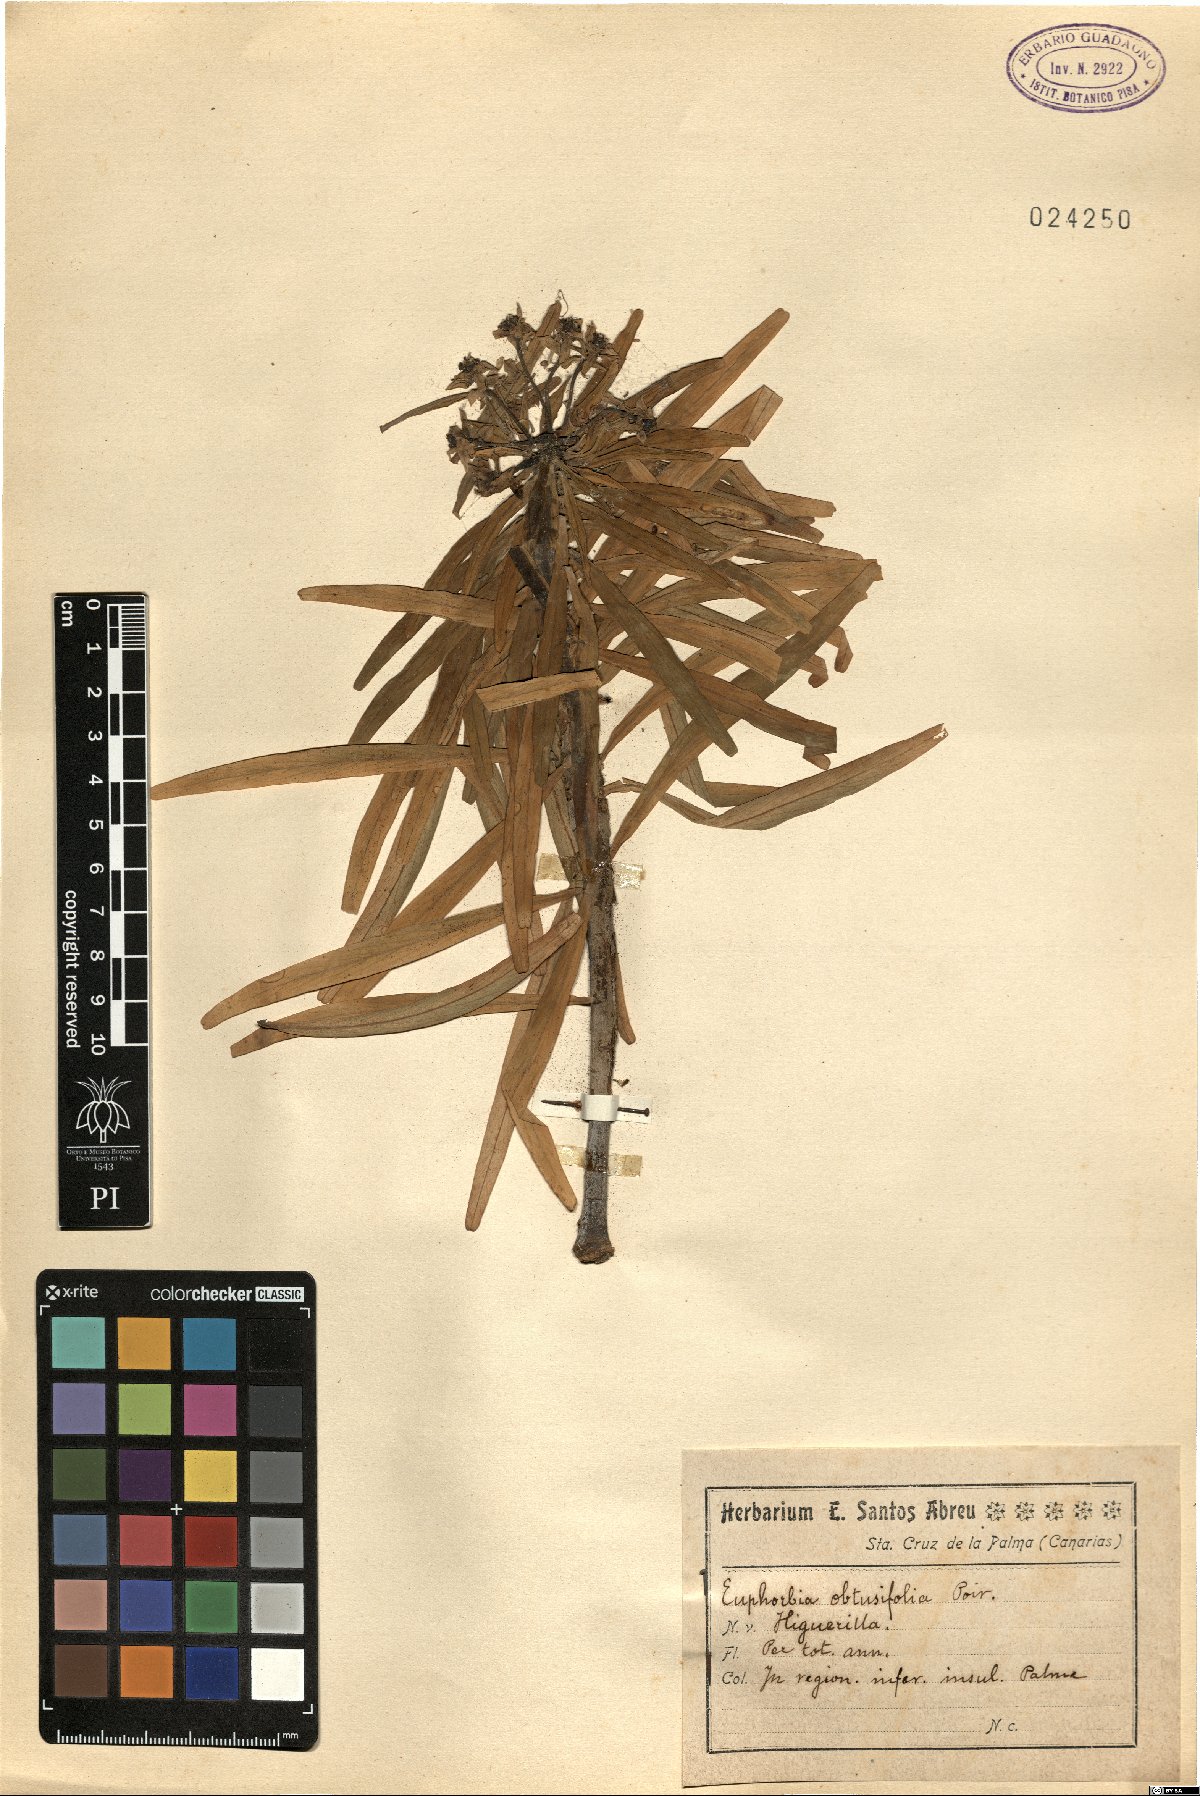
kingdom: Plantae
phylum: Tracheophyta
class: Magnoliopsida
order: Malpighiales
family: Euphorbiaceae
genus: Euphorbia
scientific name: Euphorbia lamarckii
